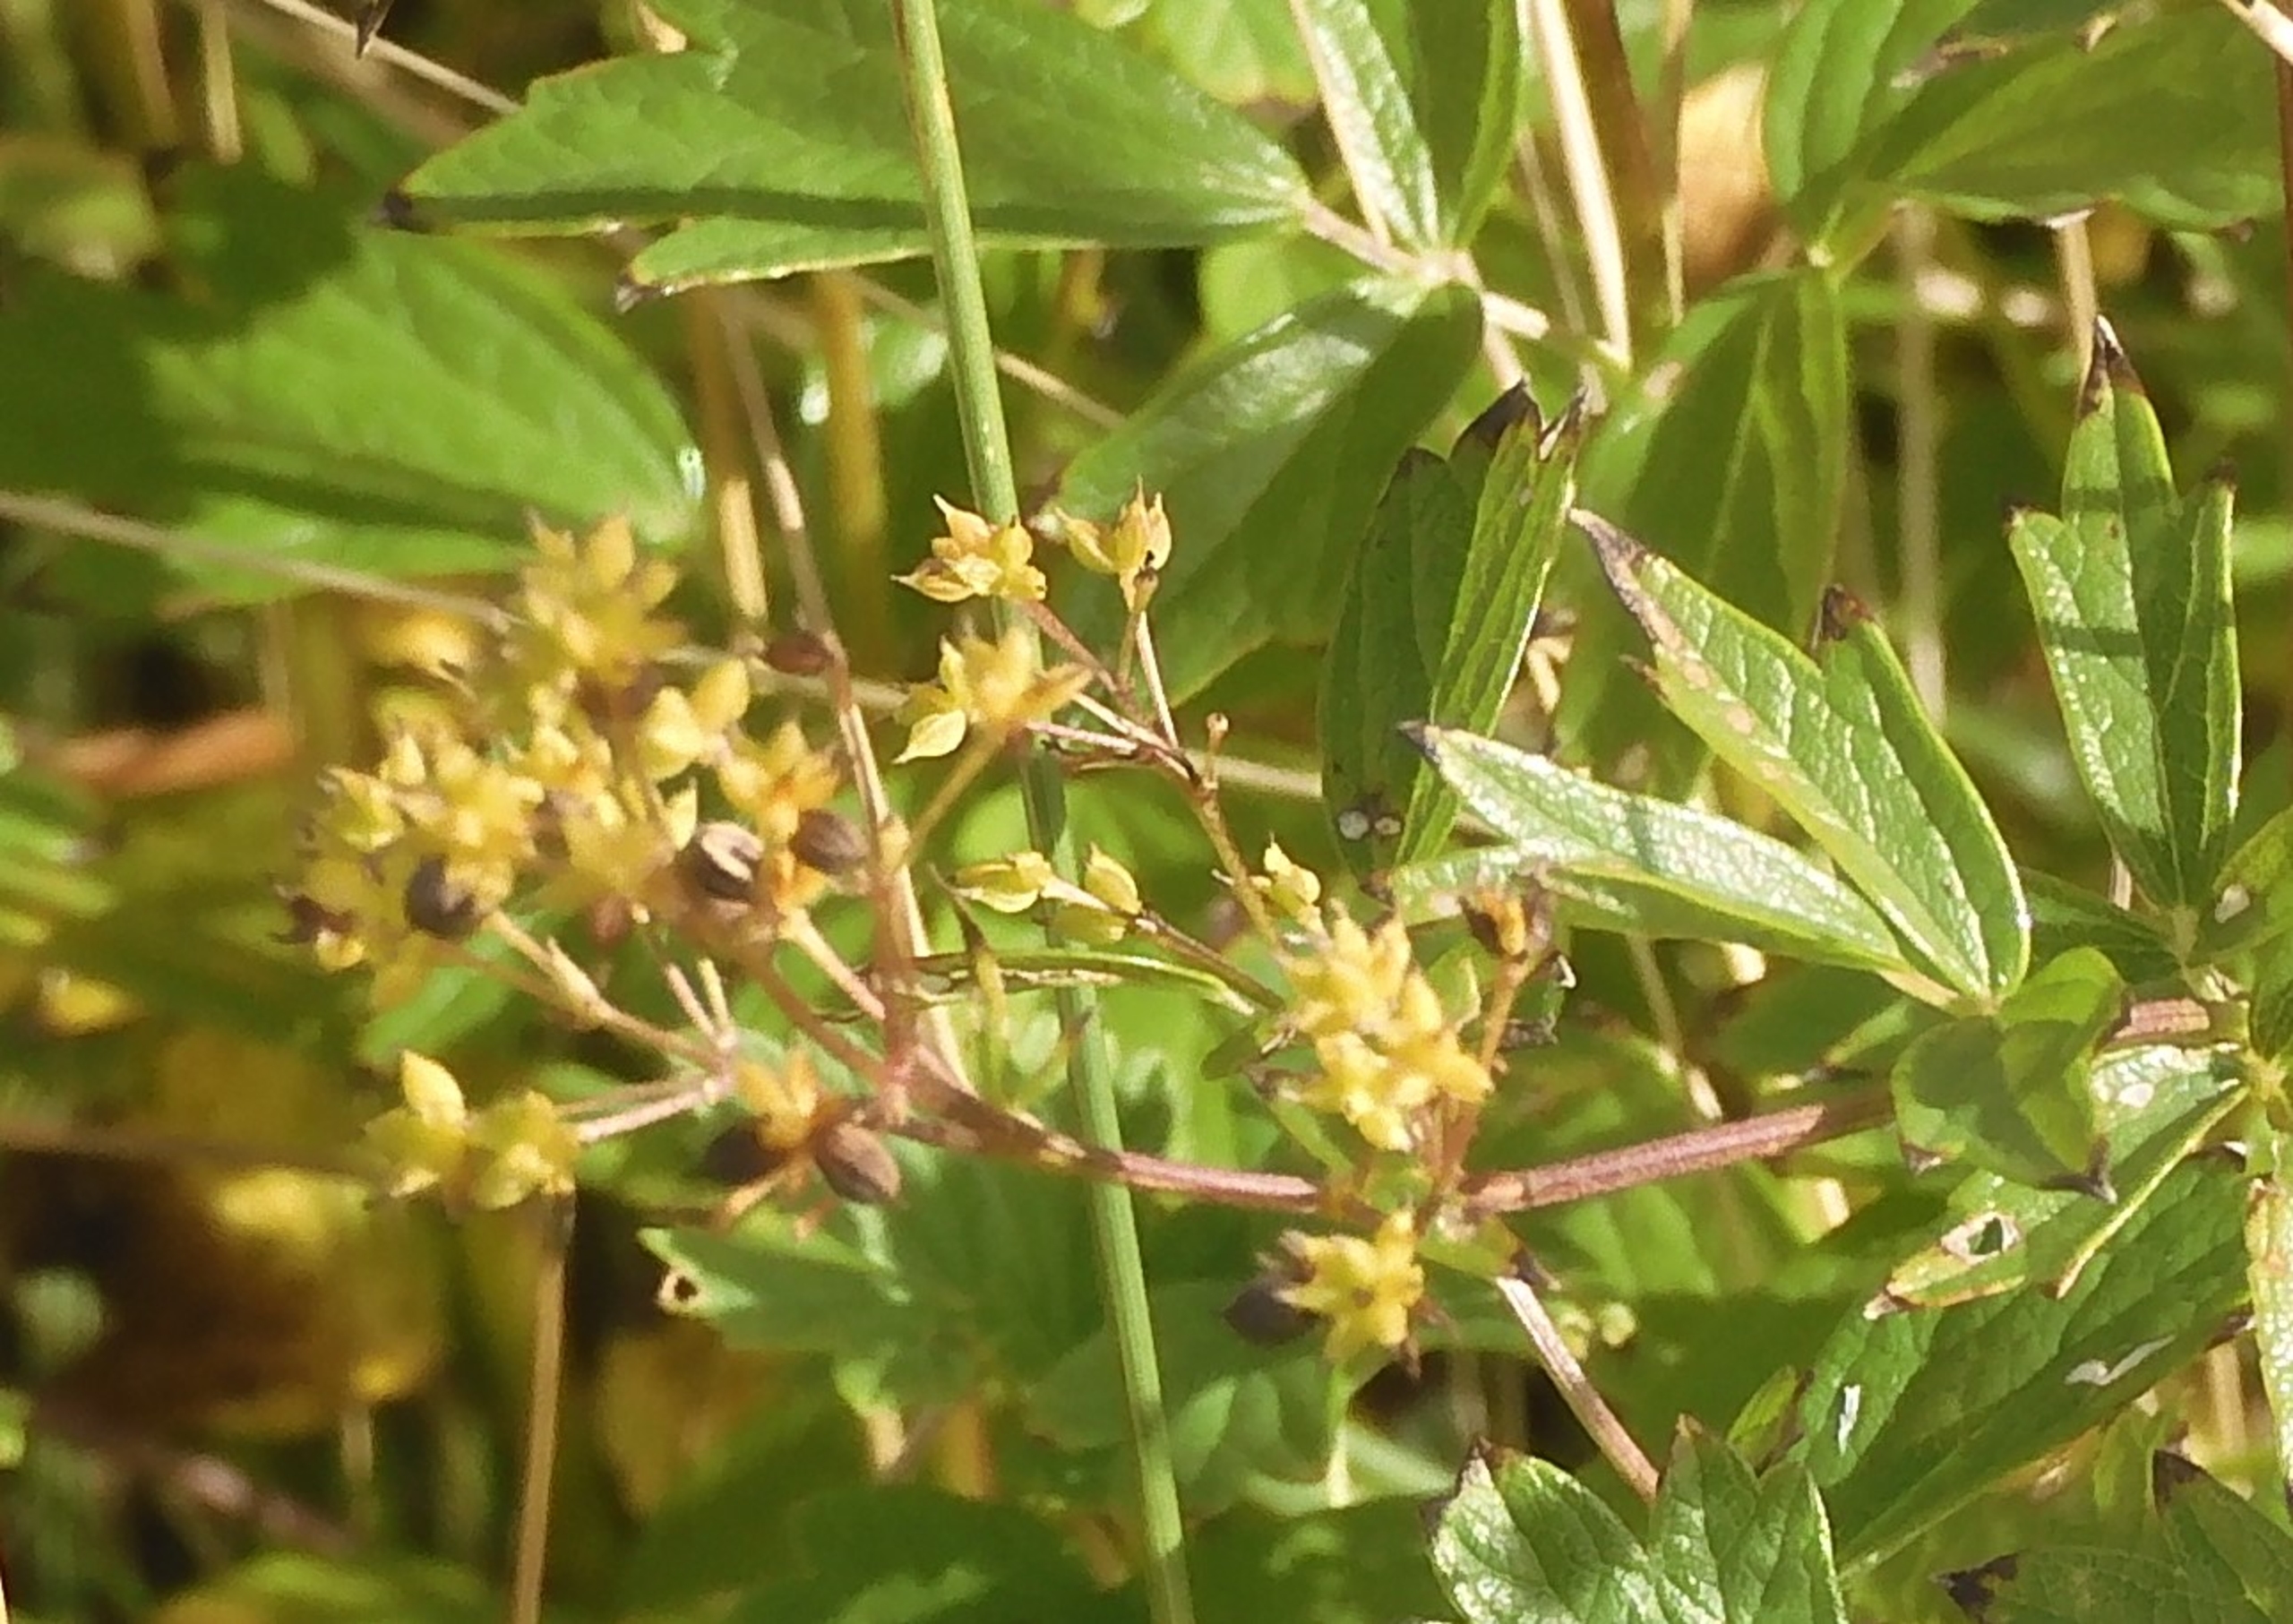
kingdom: Plantae
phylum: Tracheophyta
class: Magnoliopsida
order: Ranunculales
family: Ranunculaceae
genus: Thalictrum
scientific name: Thalictrum flavum
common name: Gul frøstjerne
